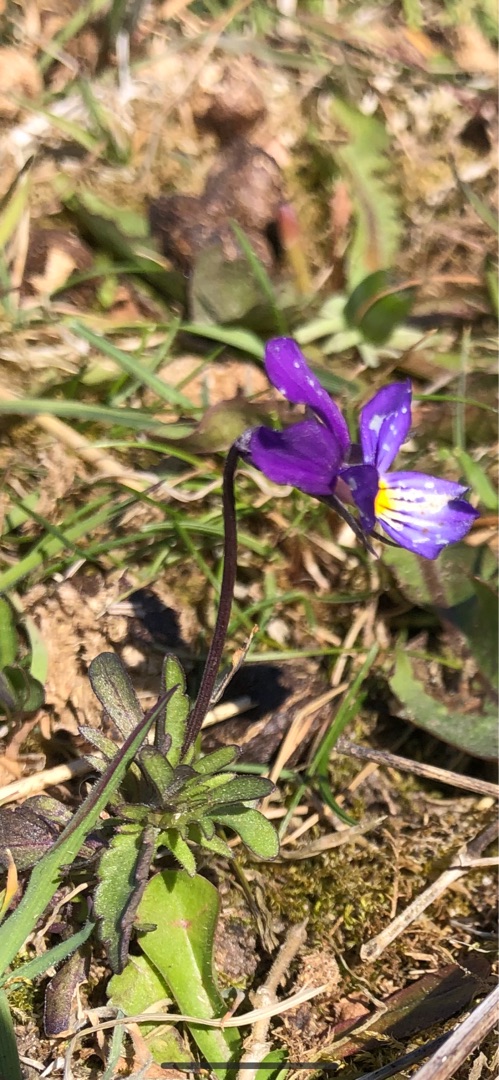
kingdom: Plantae
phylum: Tracheophyta
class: Magnoliopsida
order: Malpighiales
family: Violaceae
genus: Viola
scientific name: Viola tricolor
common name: Stedmoderblomst
